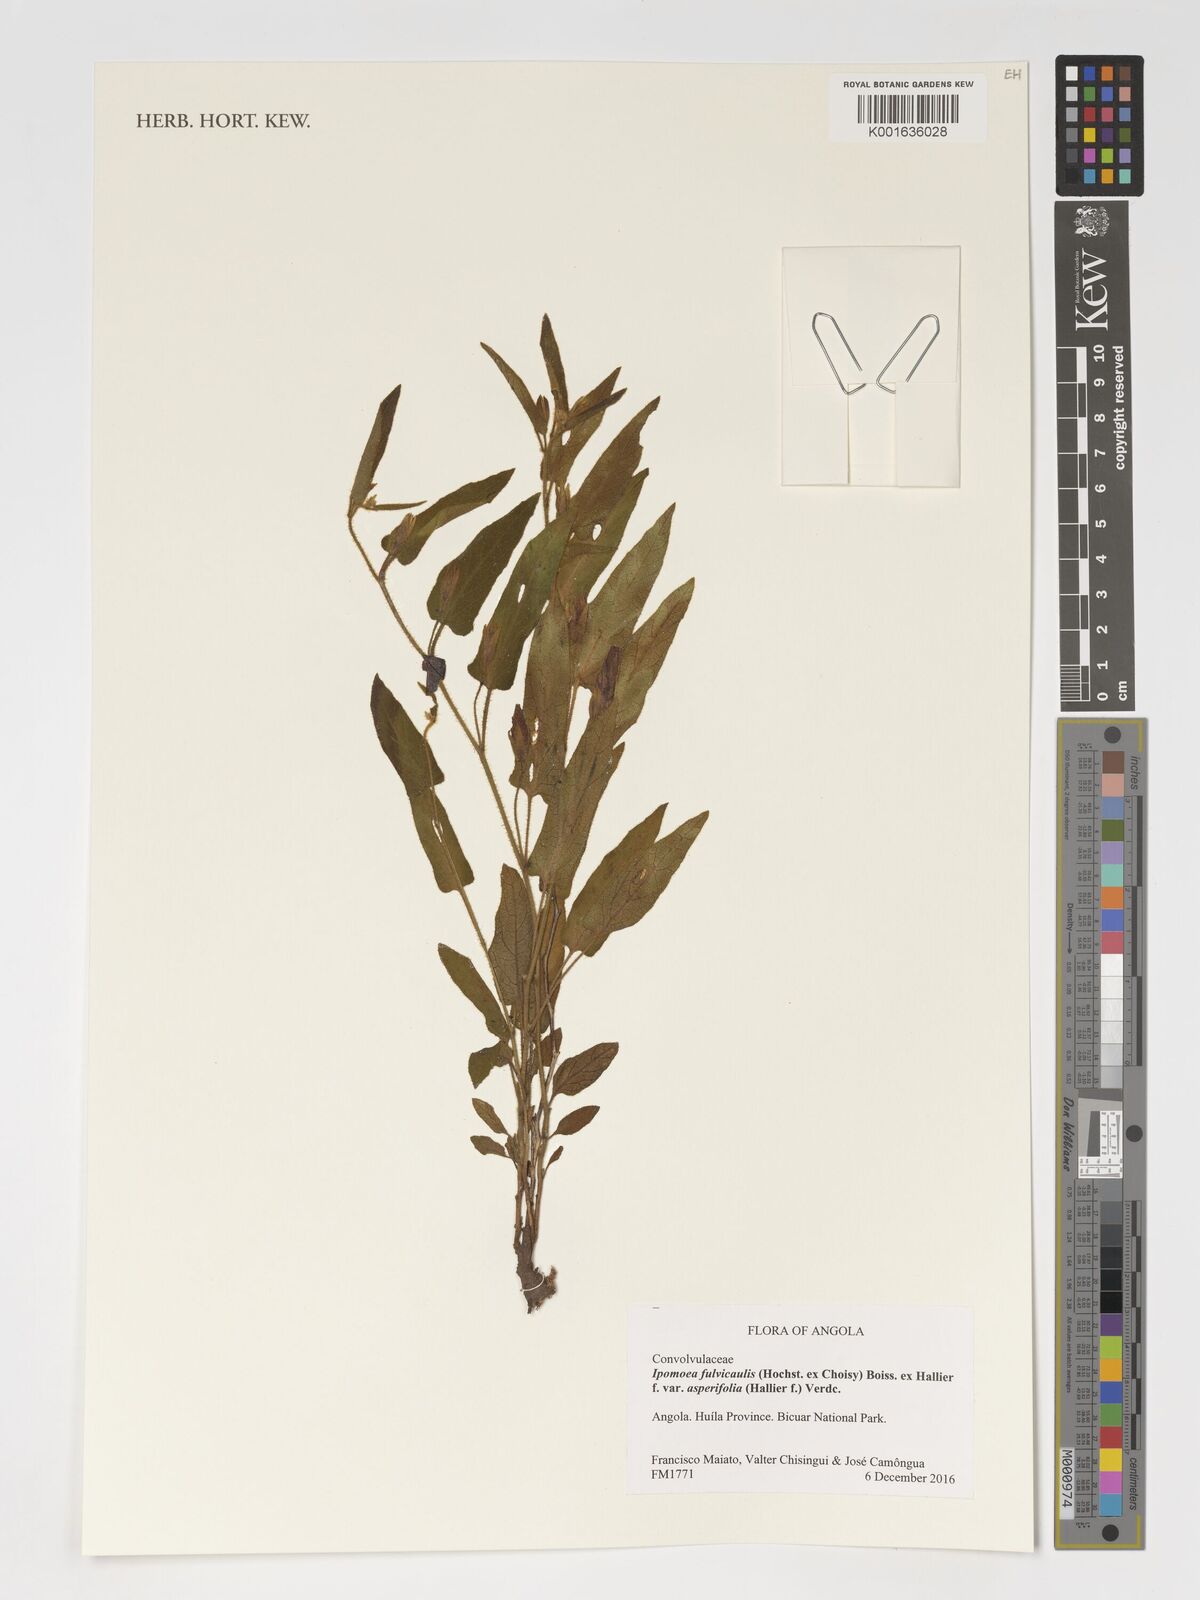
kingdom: Plantae
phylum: Tracheophyta
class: Magnoliopsida
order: Solanales
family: Convolvulaceae
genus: Ipomoea
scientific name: Ipomoea fulvicaulis
